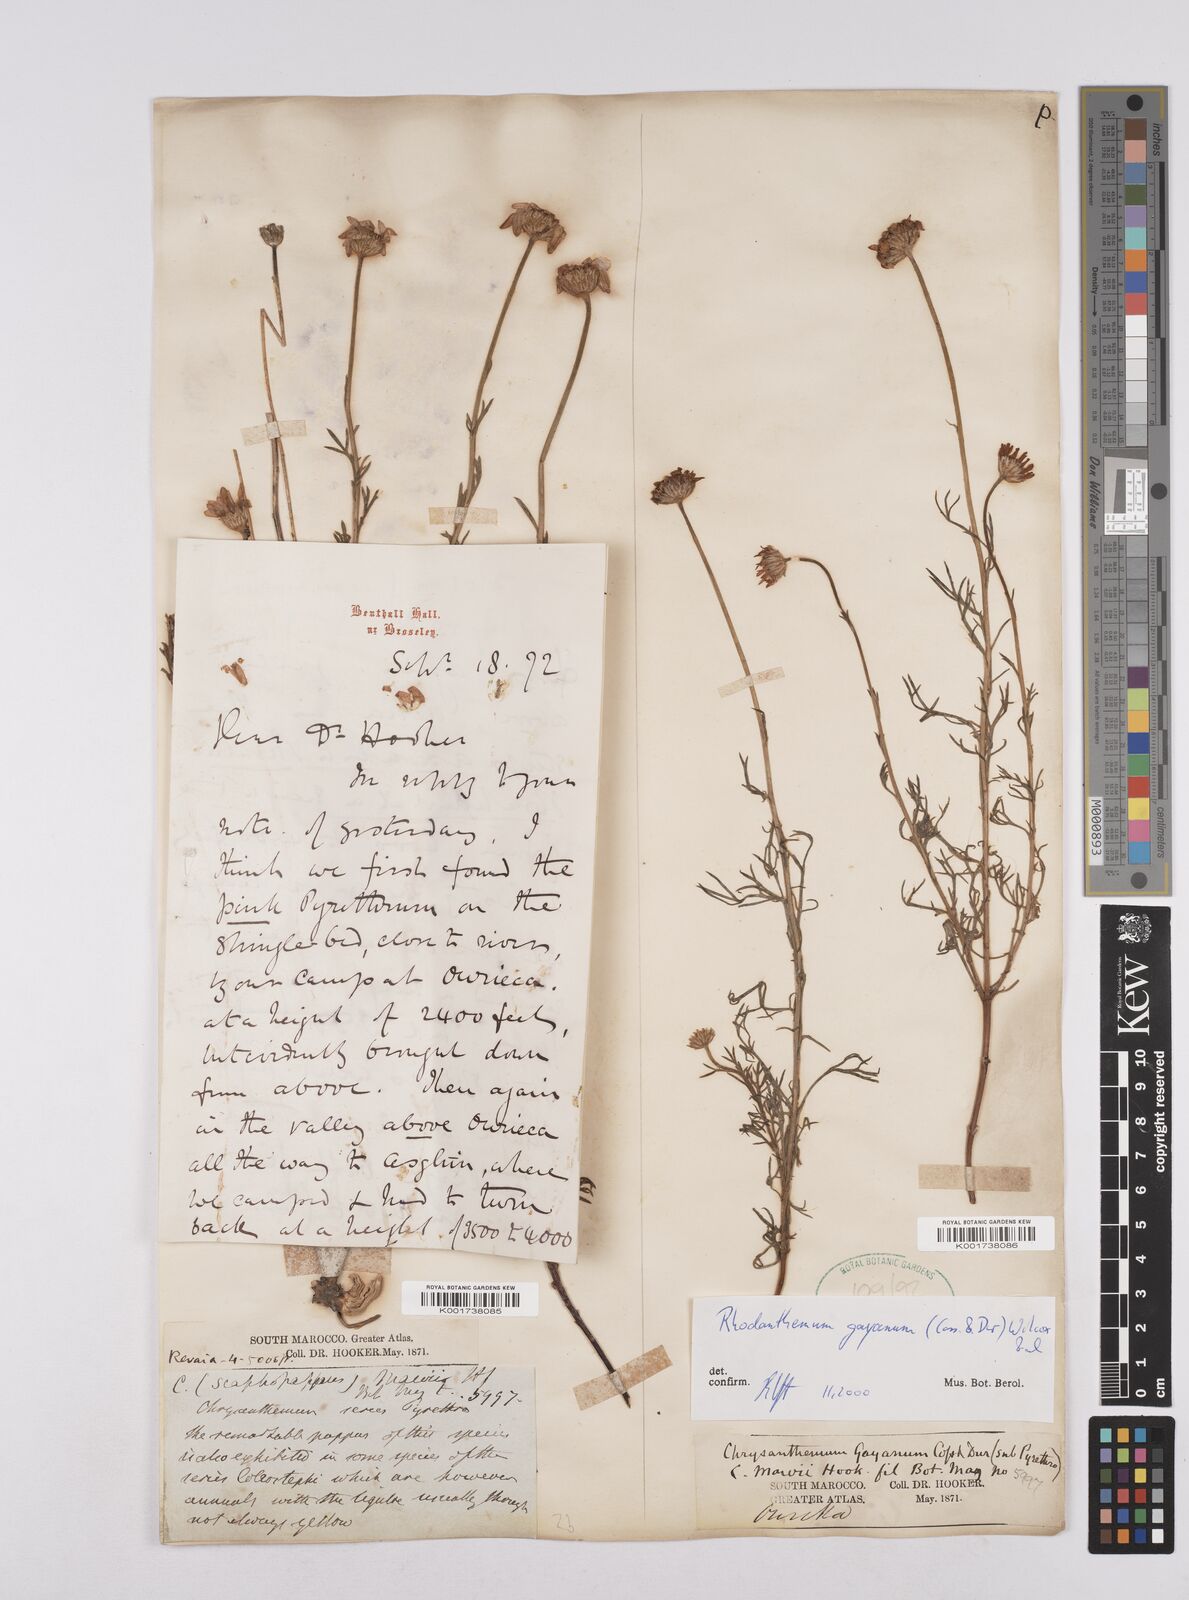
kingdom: Plantae
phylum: Tracheophyta
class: Magnoliopsida
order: Asterales
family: Asteraceae
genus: Rhodanthemum
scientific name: Rhodanthemum gayanum
